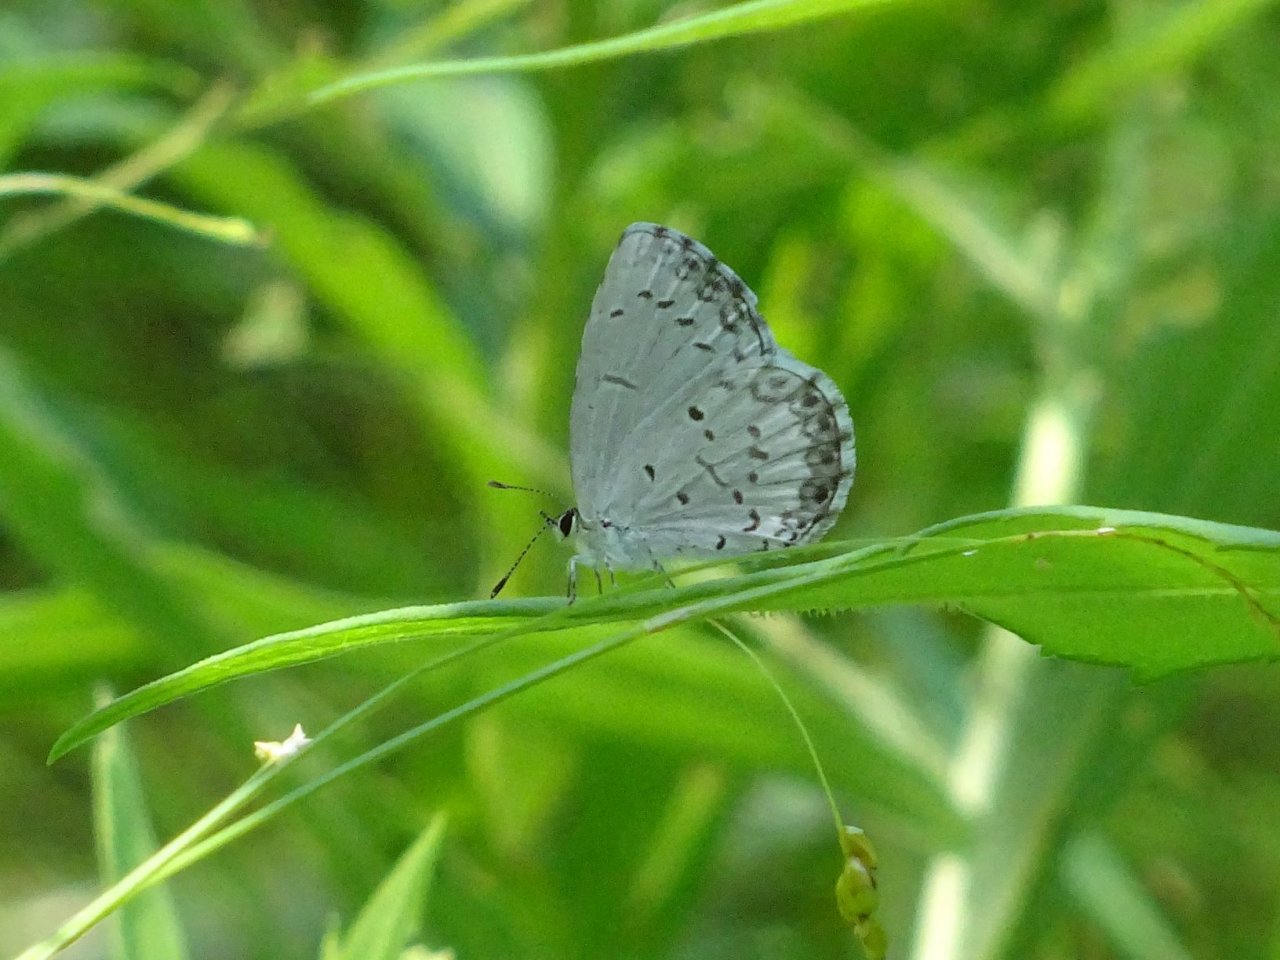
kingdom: Animalia
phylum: Arthropoda
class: Insecta
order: Lepidoptera
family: Lycaenidae
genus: Celastrina
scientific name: Celastrina lucia
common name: Northern Spring Azure
